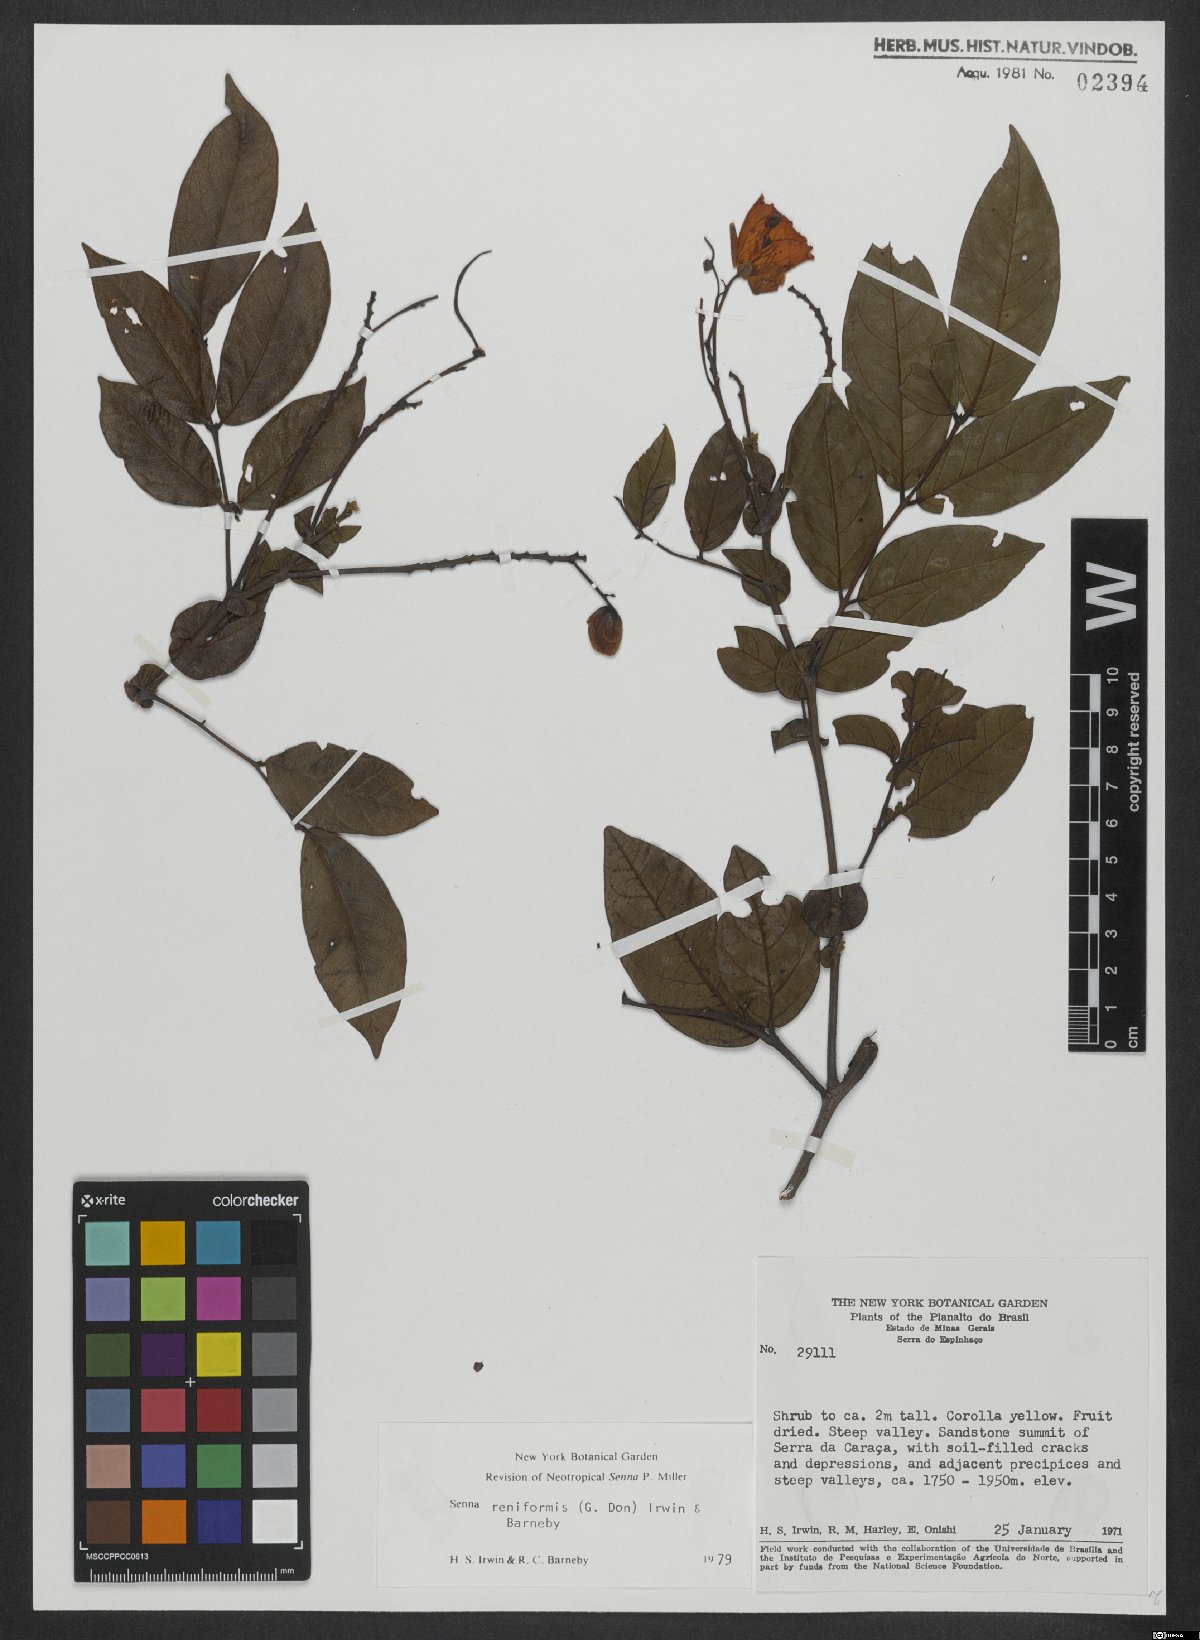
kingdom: Plantae
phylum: Tracheophyta
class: Magnoliopsida
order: Fabales
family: Fabaceae
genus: Senna
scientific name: Senna reniformis
